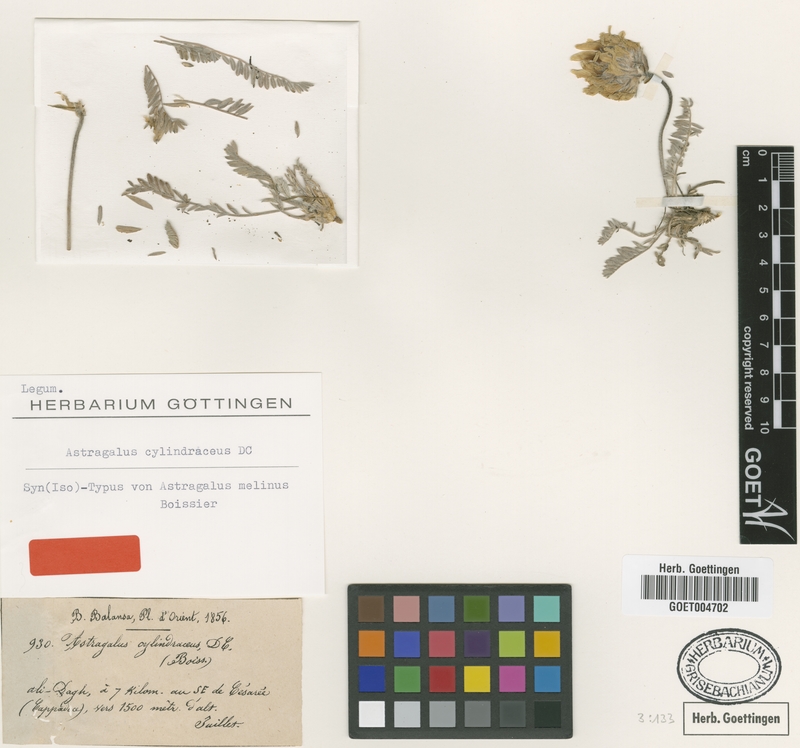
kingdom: Plantae
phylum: Tracheophyta
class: Magnoliopsida
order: Fabales
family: Fabaceae
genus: Astragalus
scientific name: Astragalus globosus
